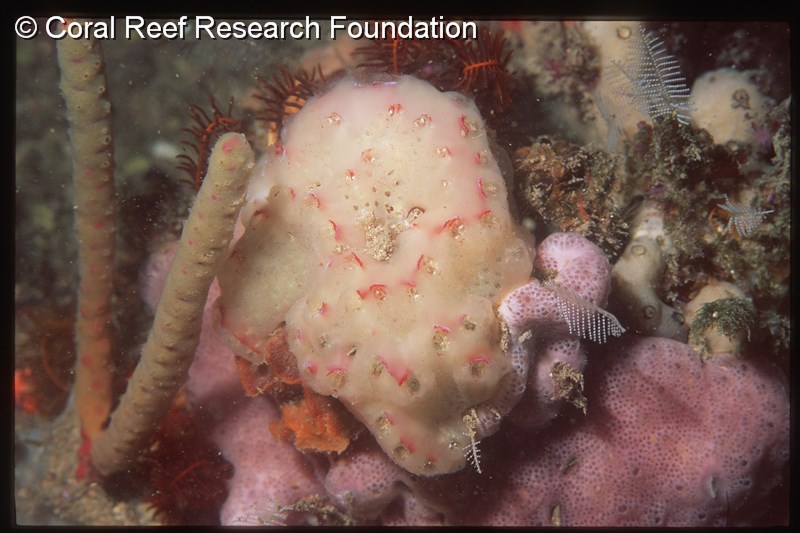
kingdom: Animalia
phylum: Chordata
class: Ascidiacea
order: Aplousobranchia
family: Holozoidae
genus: Sycozoa
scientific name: Sycozoa
